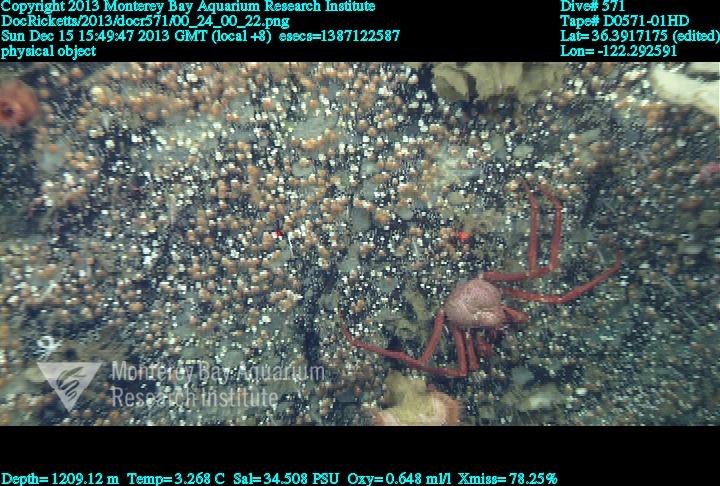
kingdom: Animalia
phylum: Cnidaria
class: Anthozoa
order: Scleractinia
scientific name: Scleractinia
